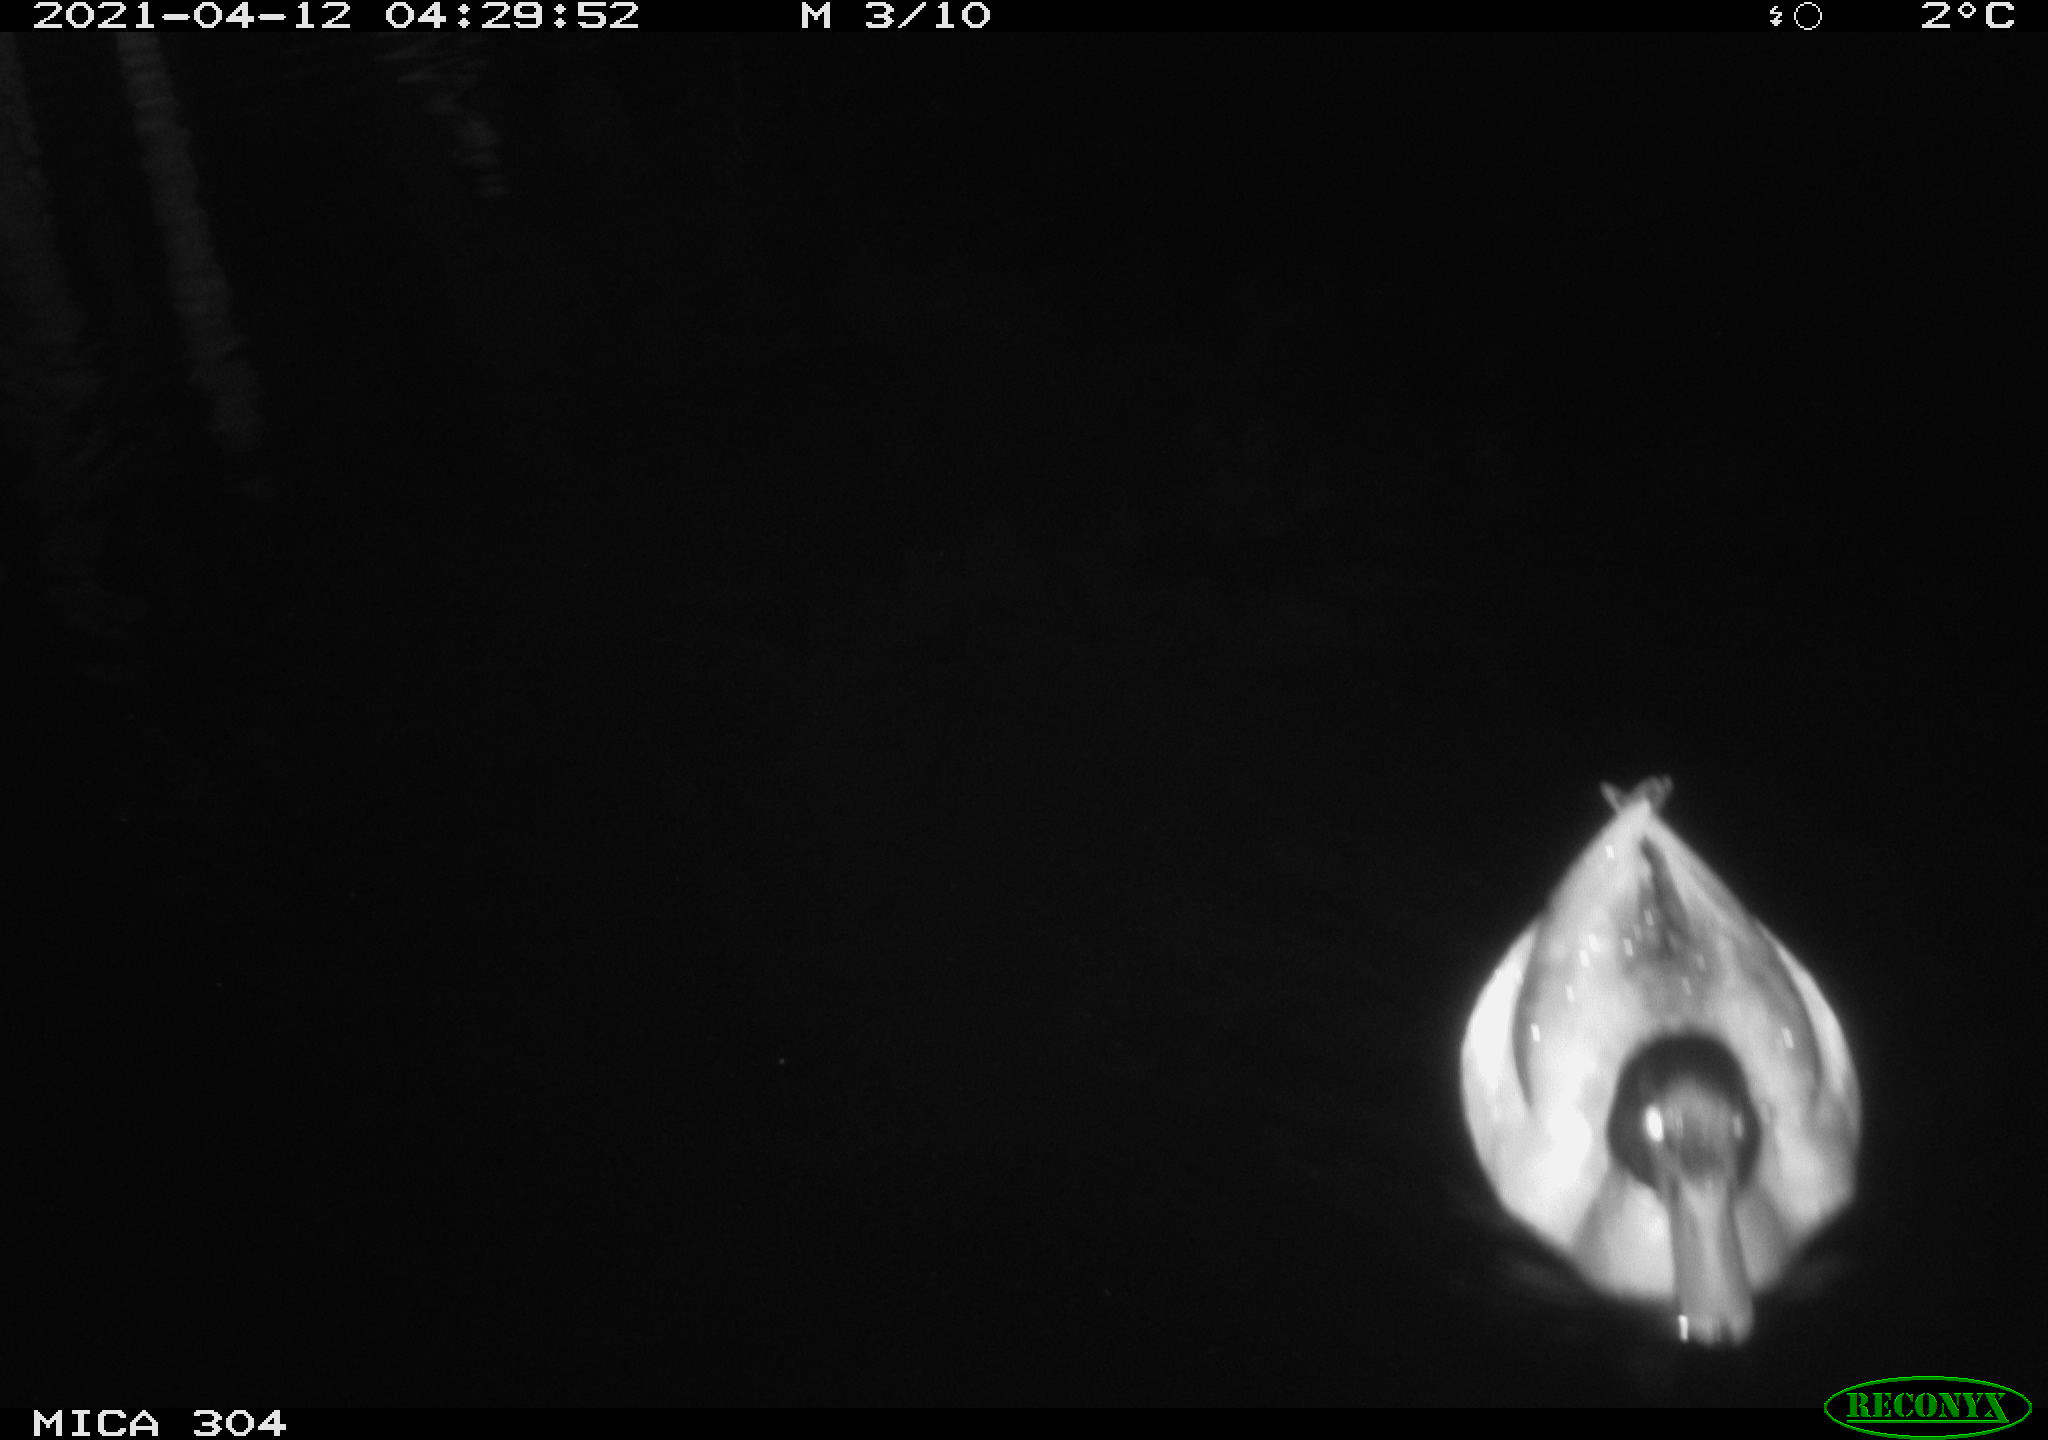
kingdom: Animalia
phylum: Chordata
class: Aves
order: Anseriformes
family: Anatidae
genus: Anas
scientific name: Anas
